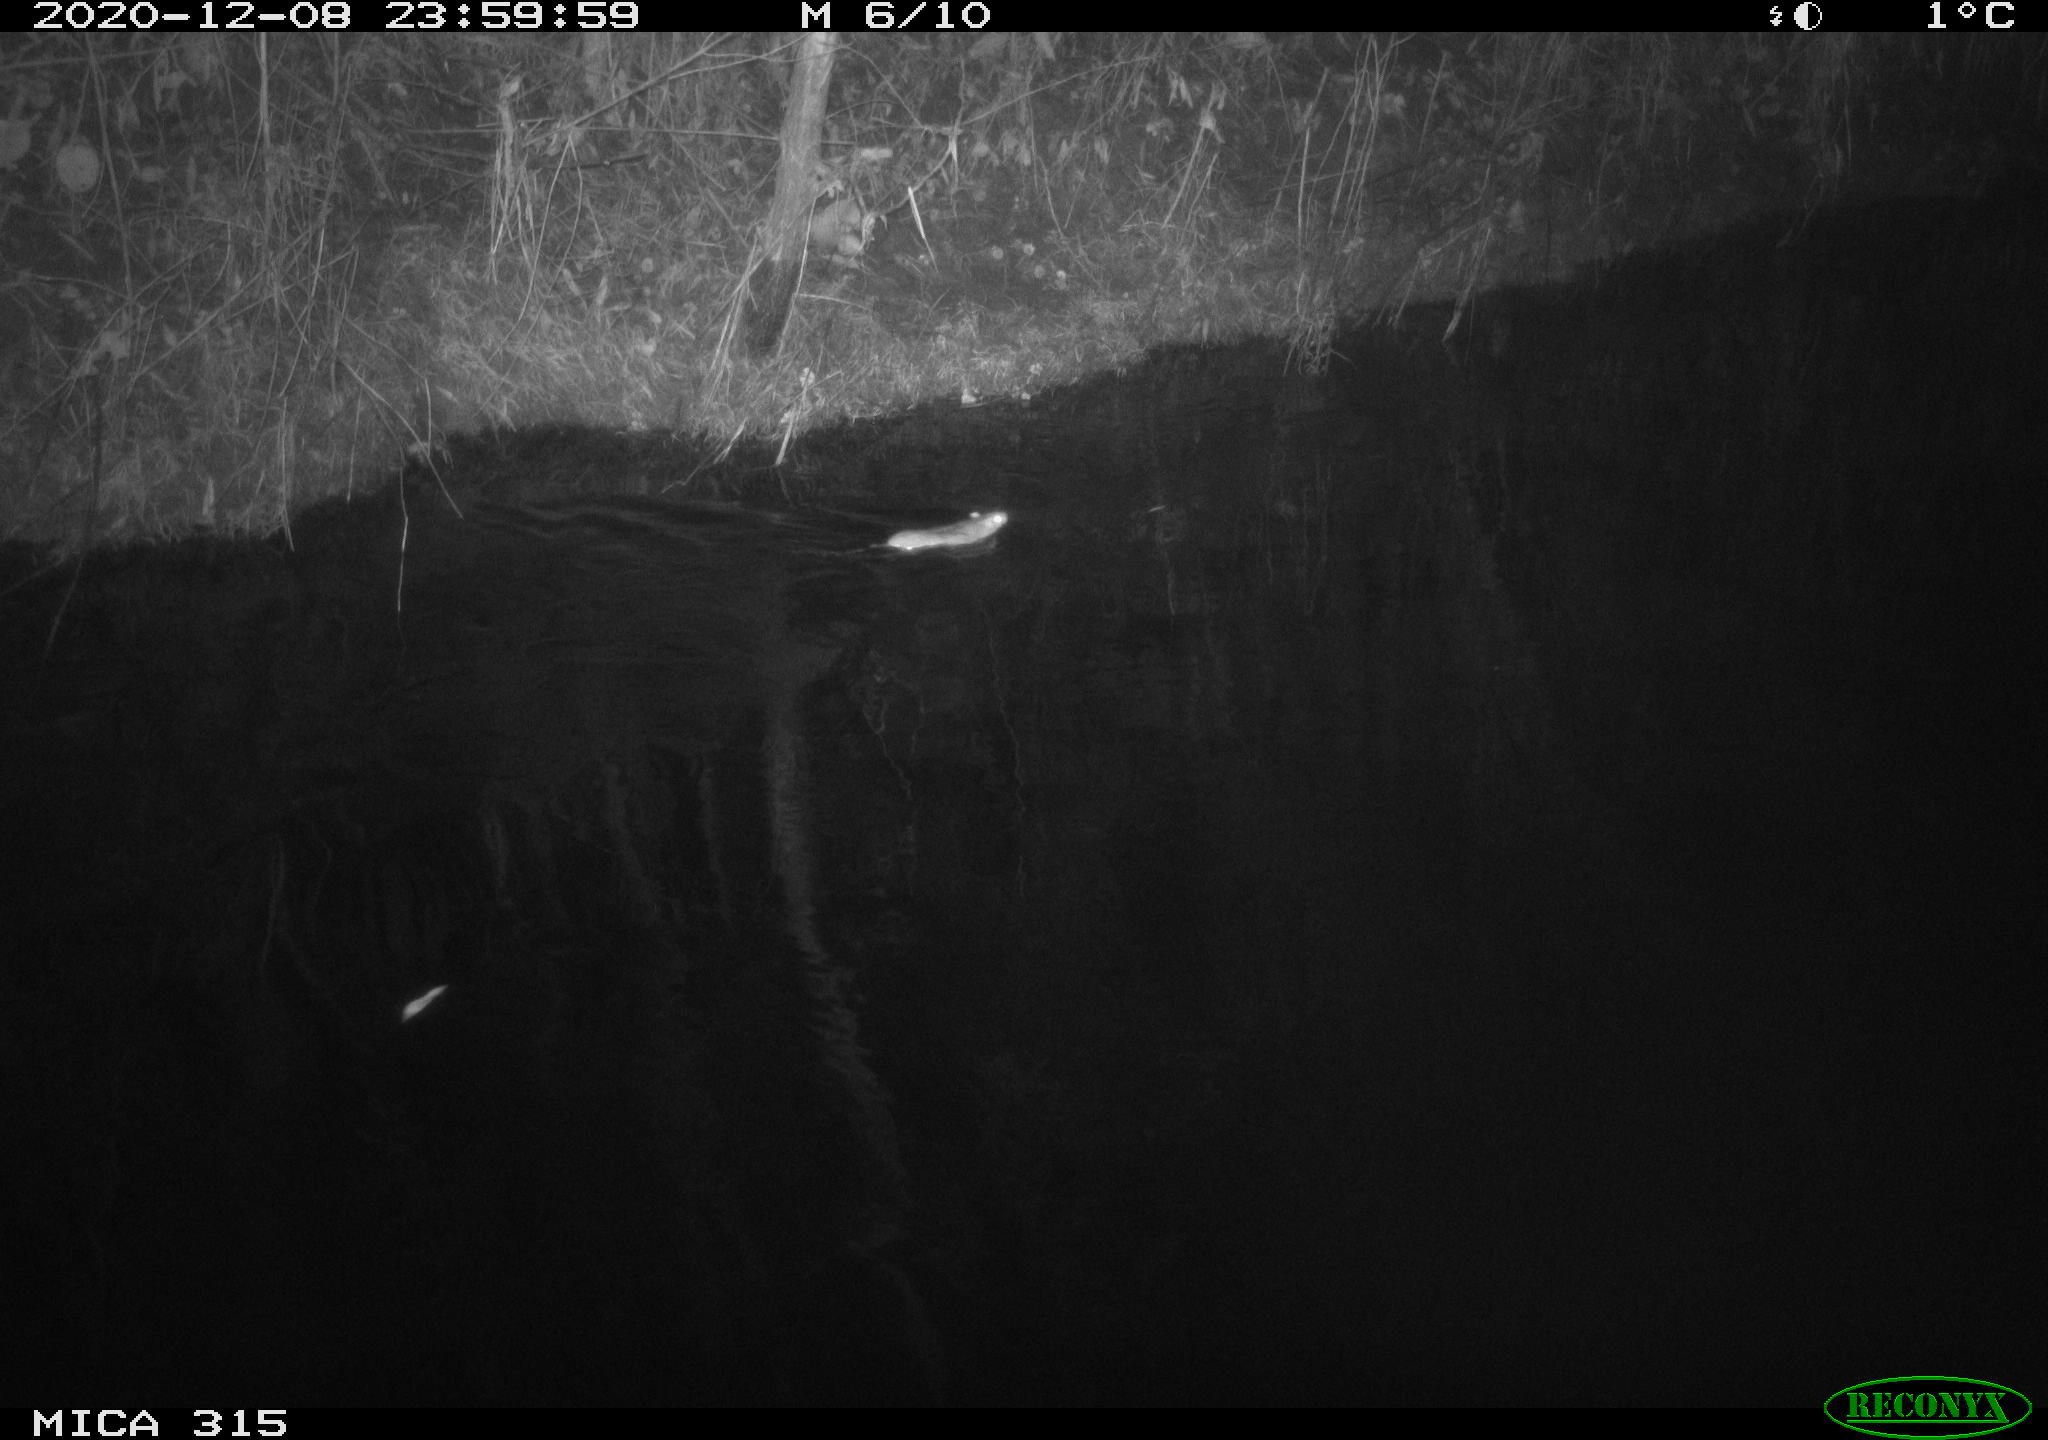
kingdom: Animalia
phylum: Chordata
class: Mammalia
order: Rodentia
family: Muridae
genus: Rattus
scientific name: Rattus norvegicus
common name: Brown rat
